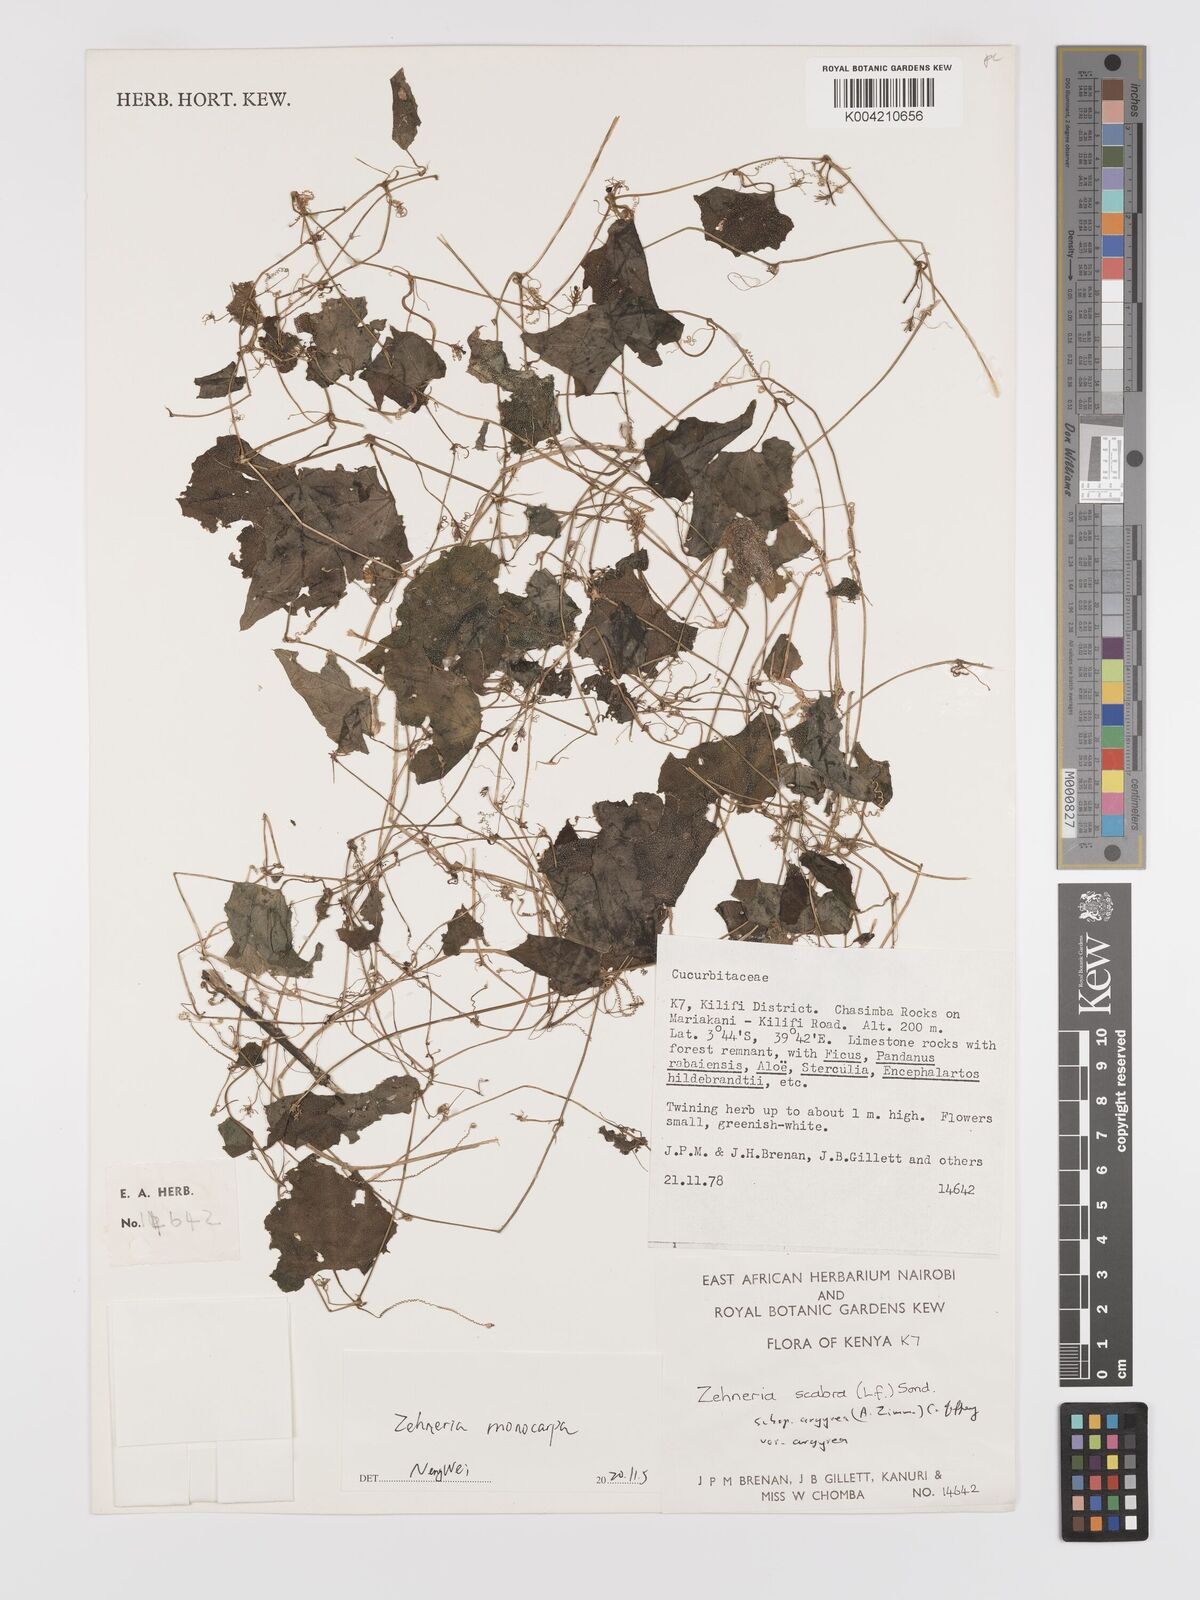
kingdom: Plantae
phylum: Tracheophyta
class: Magnoliopsida
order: Cucurbitales
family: Cucurbitaceae
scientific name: Cucurbitaceae
